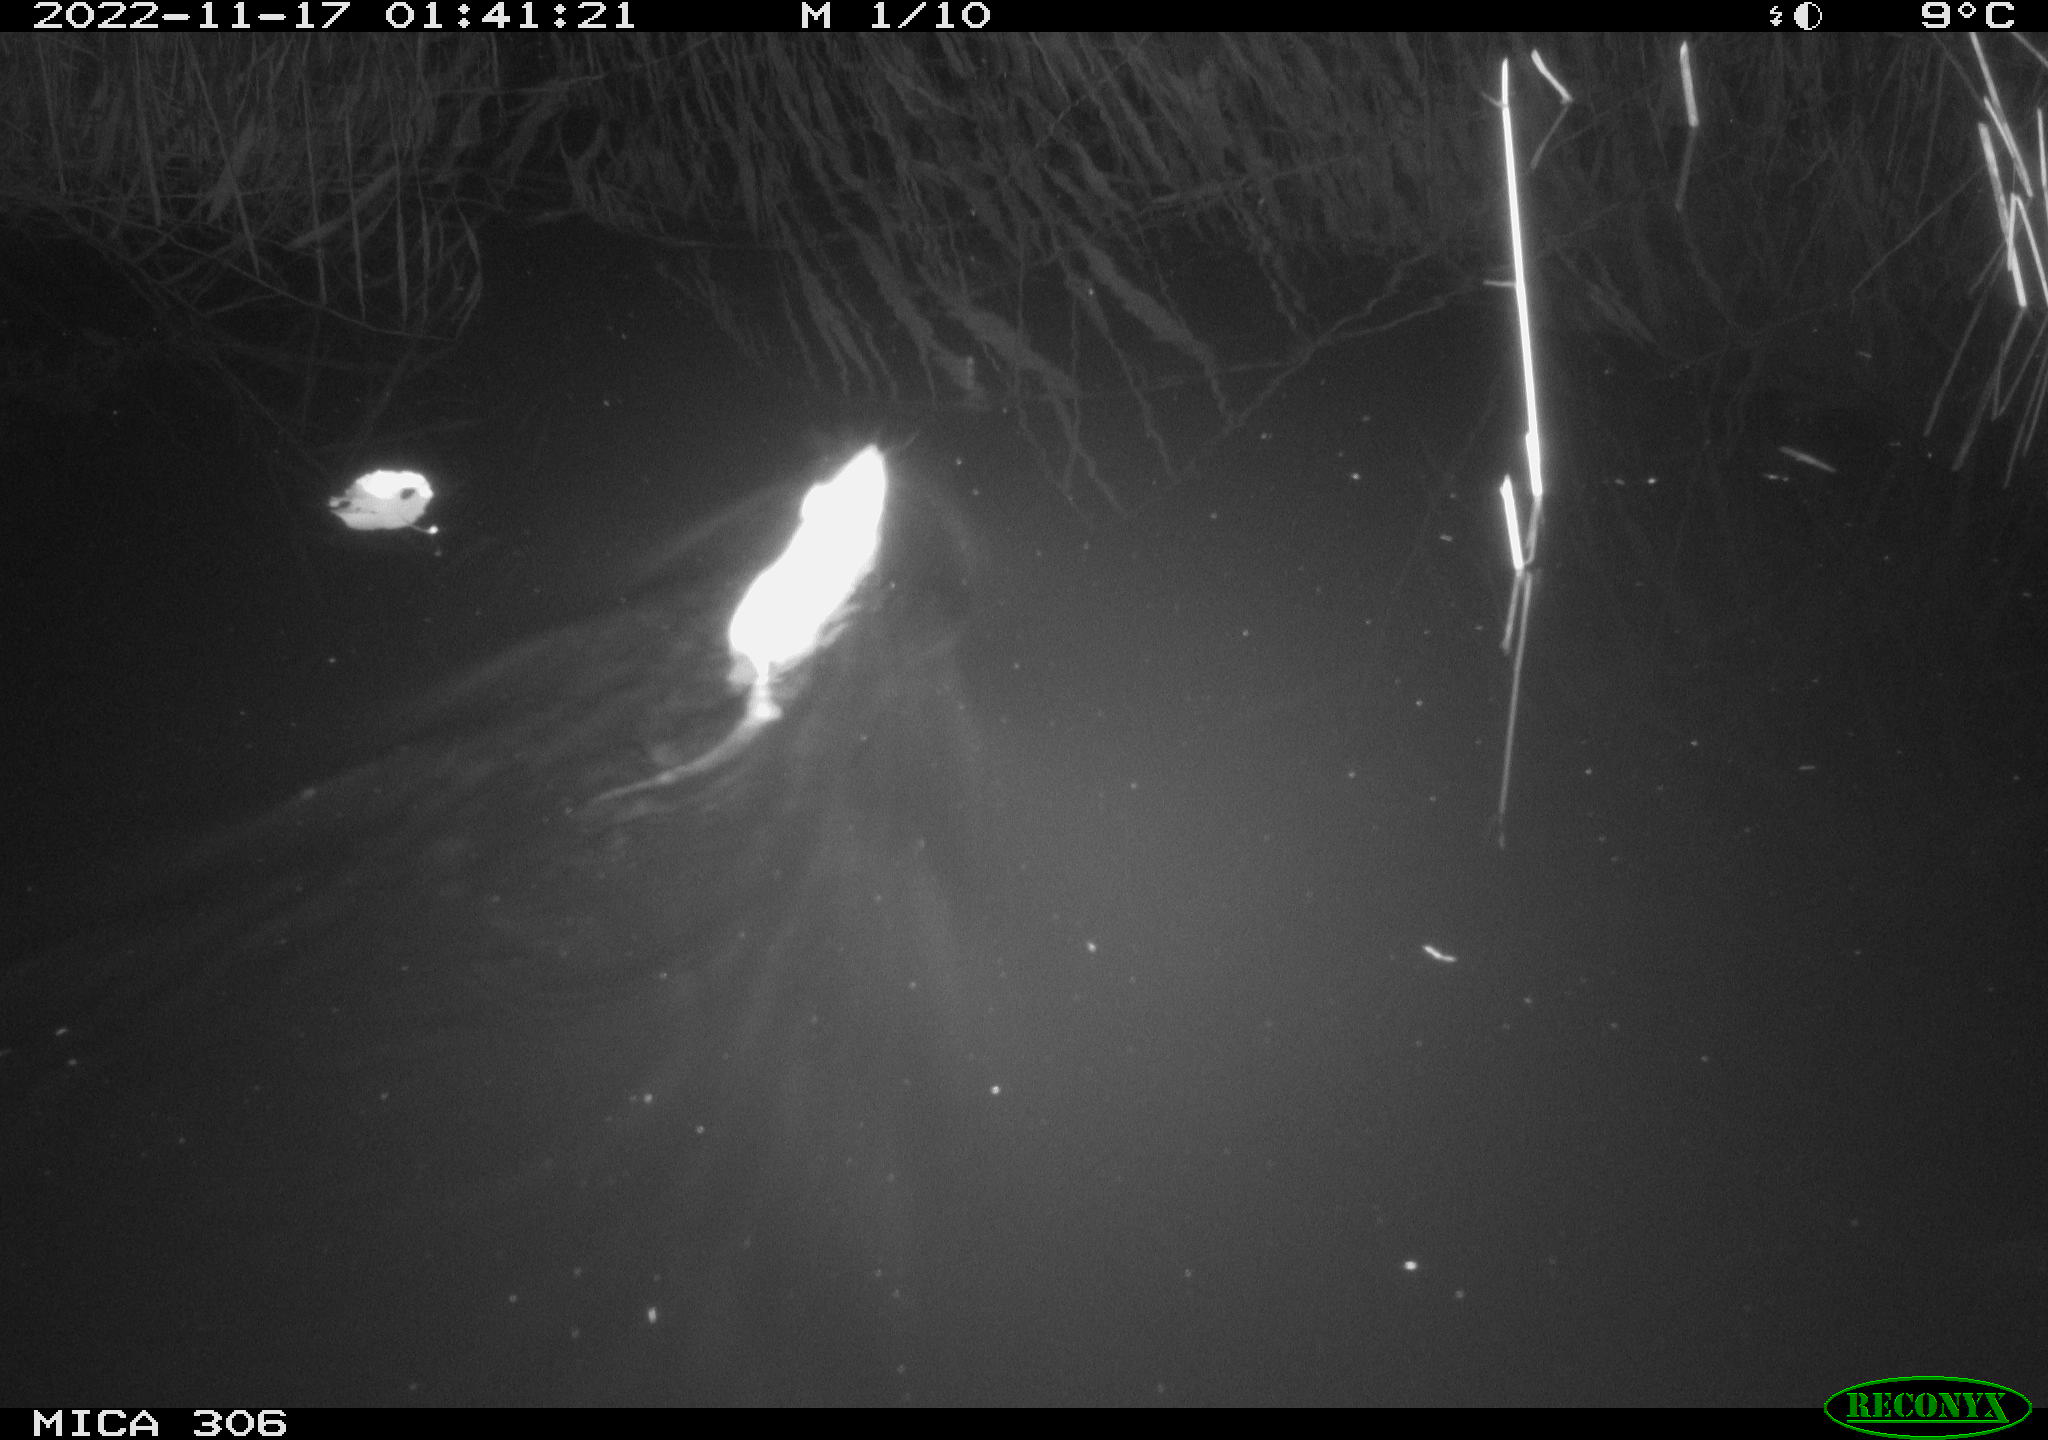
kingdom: Animalia
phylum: Chordata
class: Mammalia
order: Rodentia
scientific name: Rodentia
